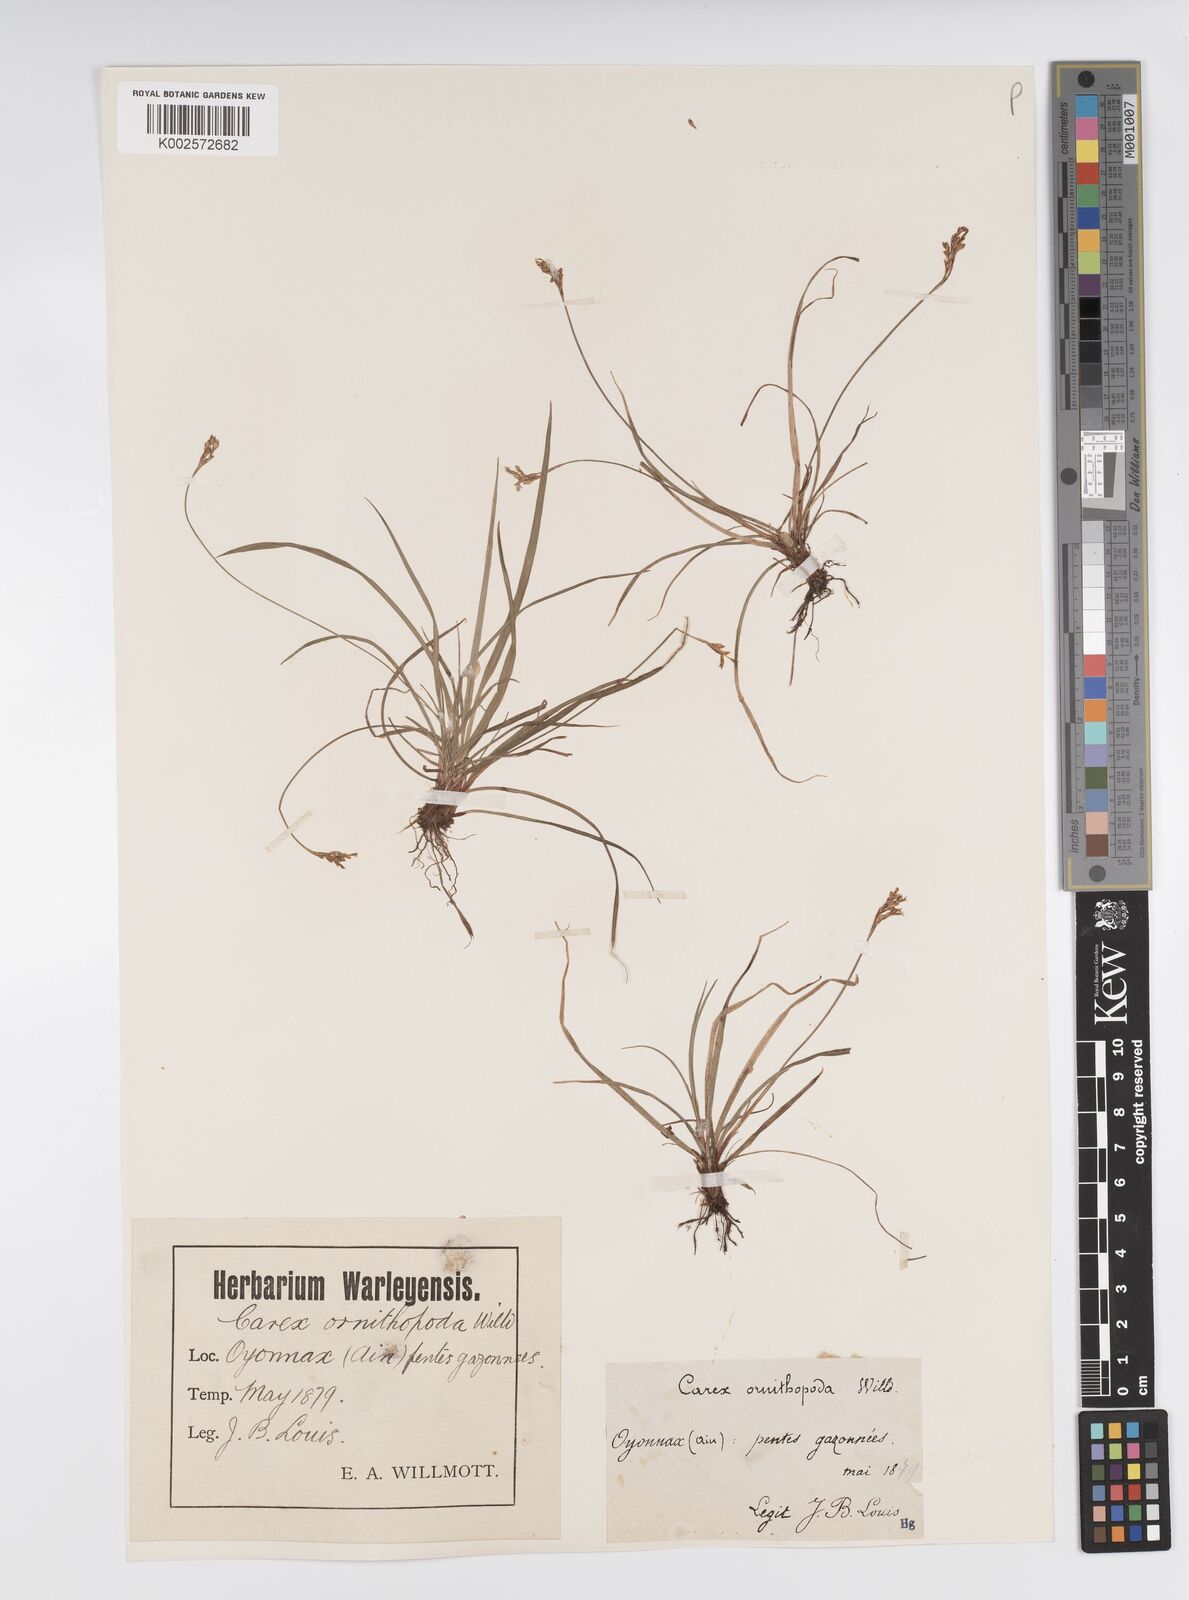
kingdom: Plantae
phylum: Tracheophyta
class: Liliopsida
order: Poales
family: Cyperaceae
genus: Carex
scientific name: Carex ornithopoda
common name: Bird's-foot sedge
